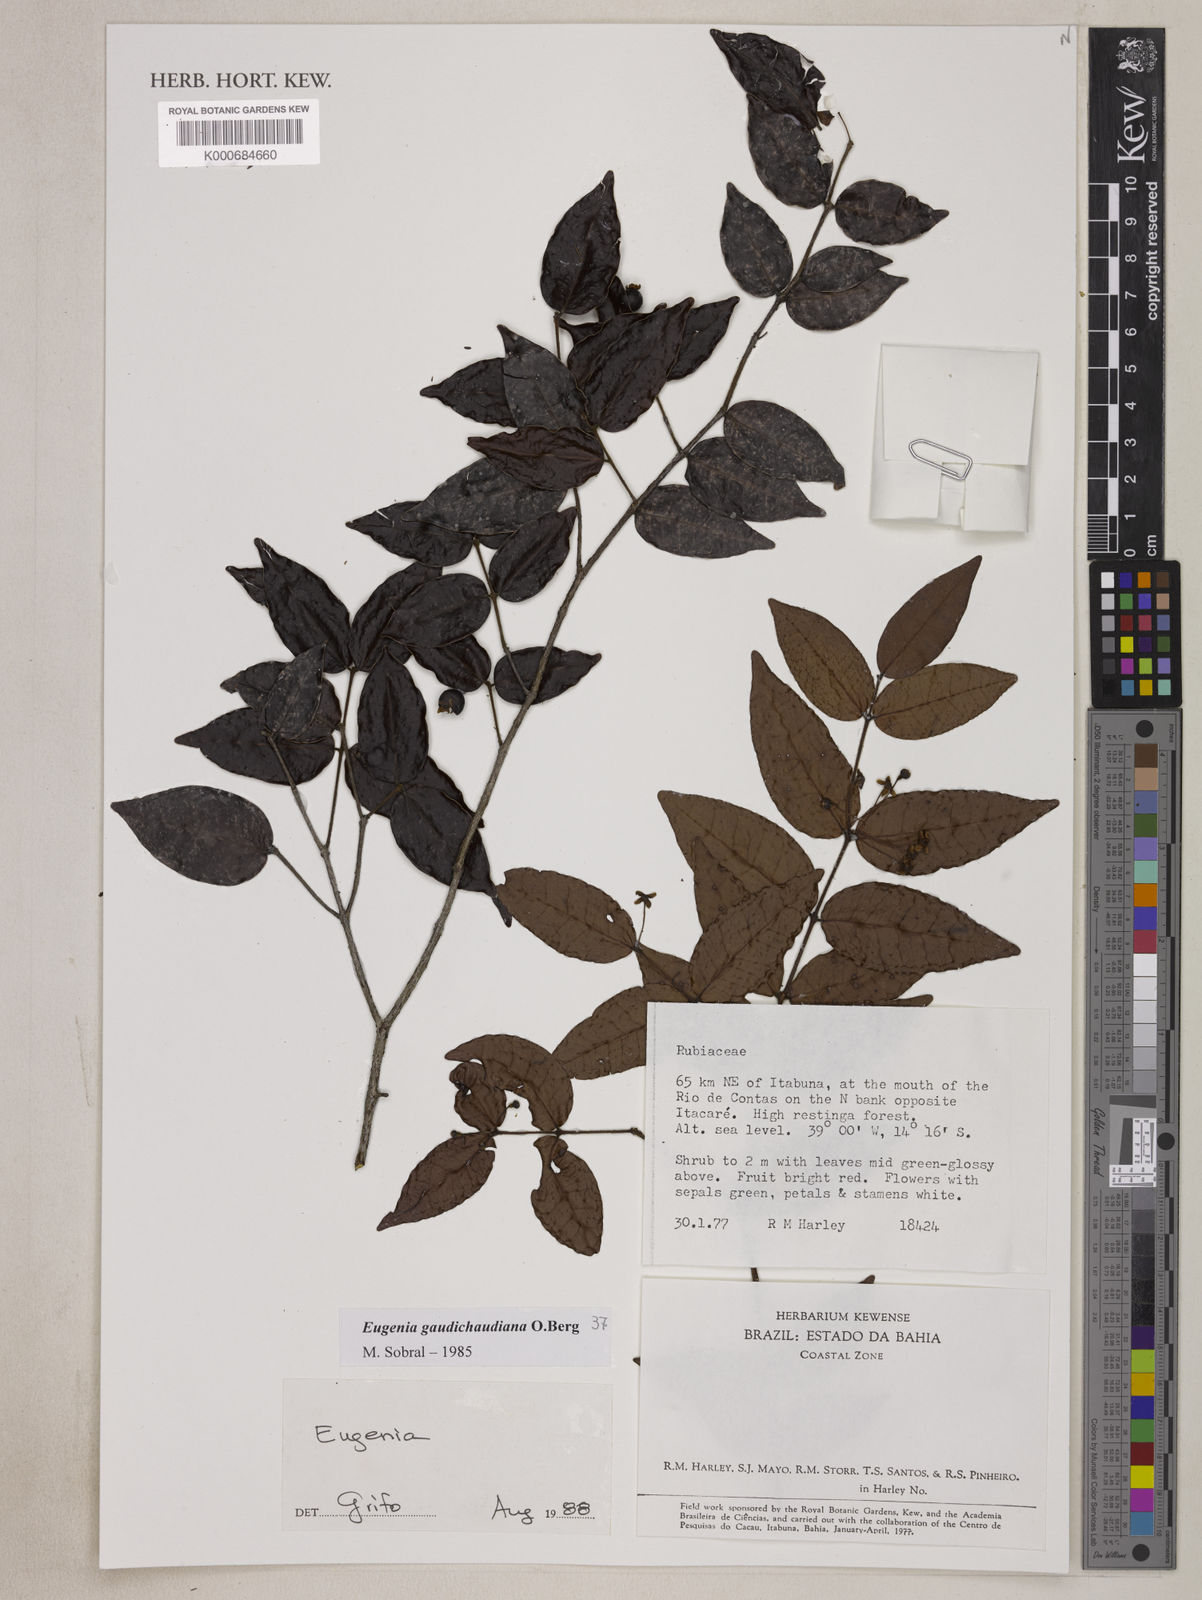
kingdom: Plantae
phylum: Tracheophyta
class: Magnoliopsida
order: Myrtales
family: Myrtaceae
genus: Eugenia
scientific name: Eugenia gaudichaudiana
